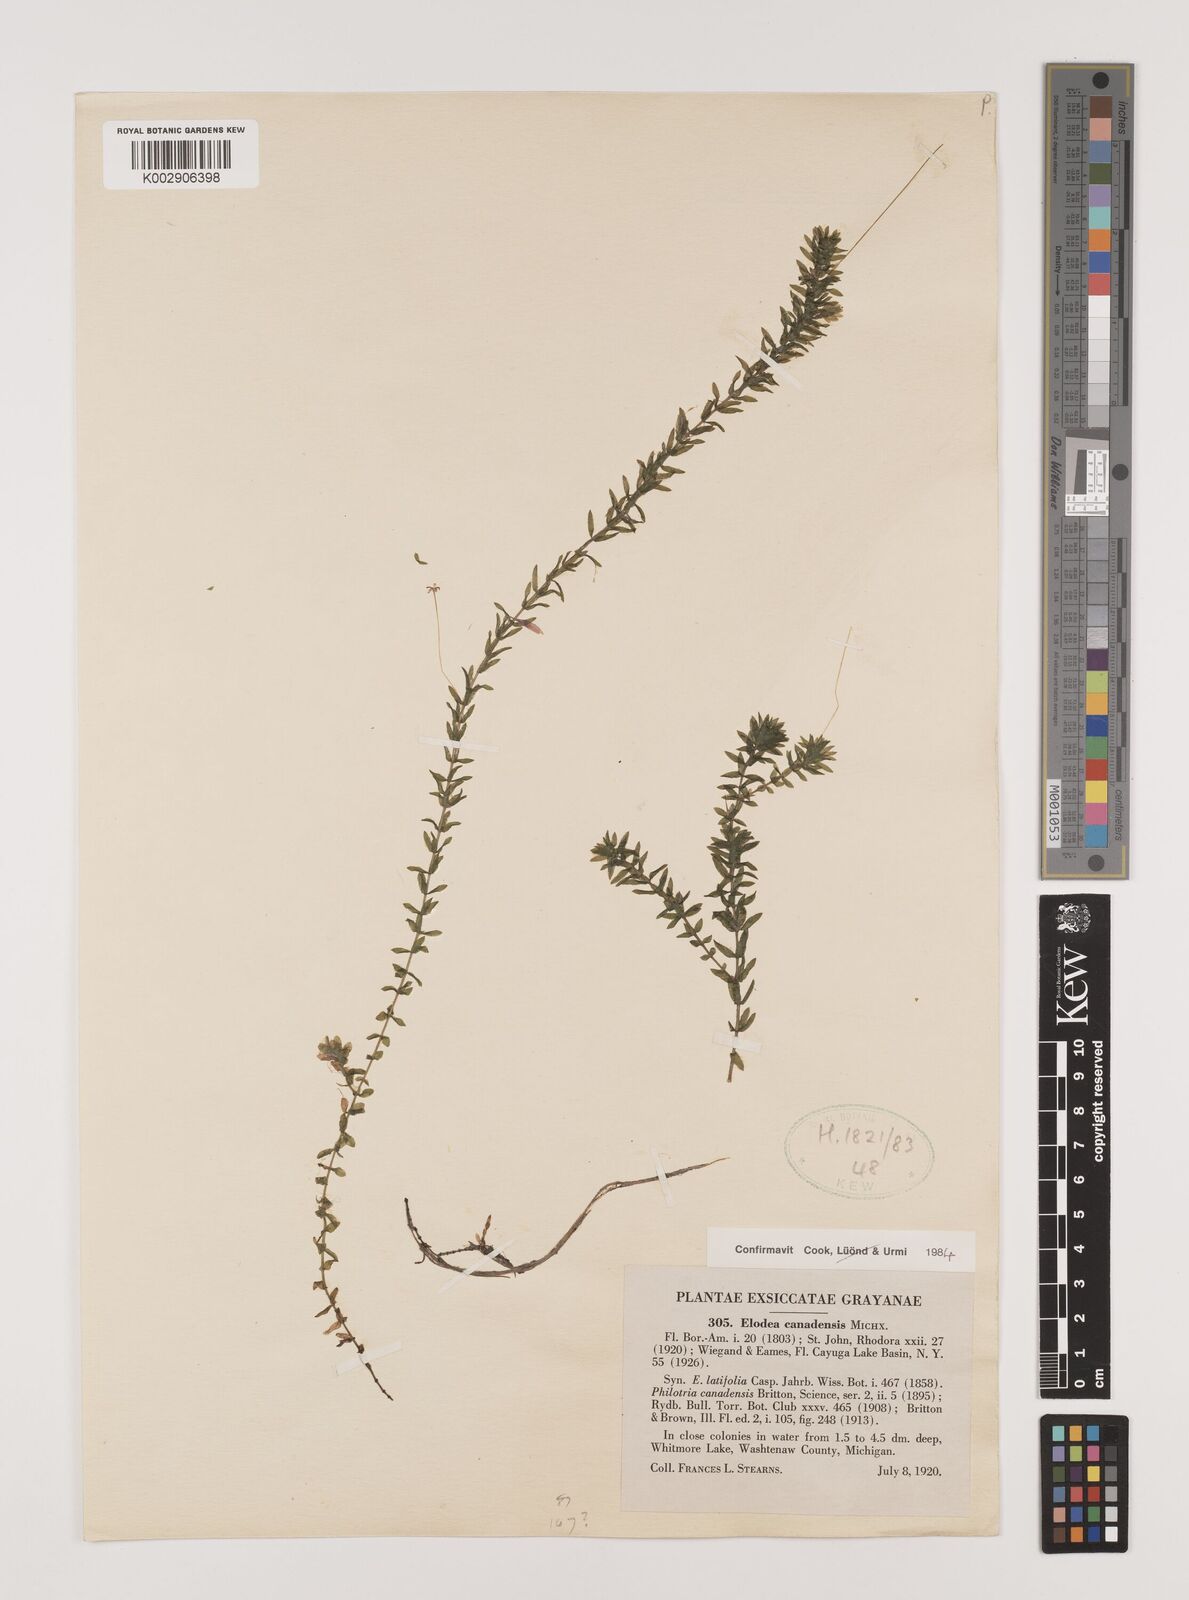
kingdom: Plantae
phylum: Tracheophyta
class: Liliopsida
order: Alismatales
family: Hydrocharitaceae
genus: Elodea
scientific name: Elodea canadensis
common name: Canadian waterweed
